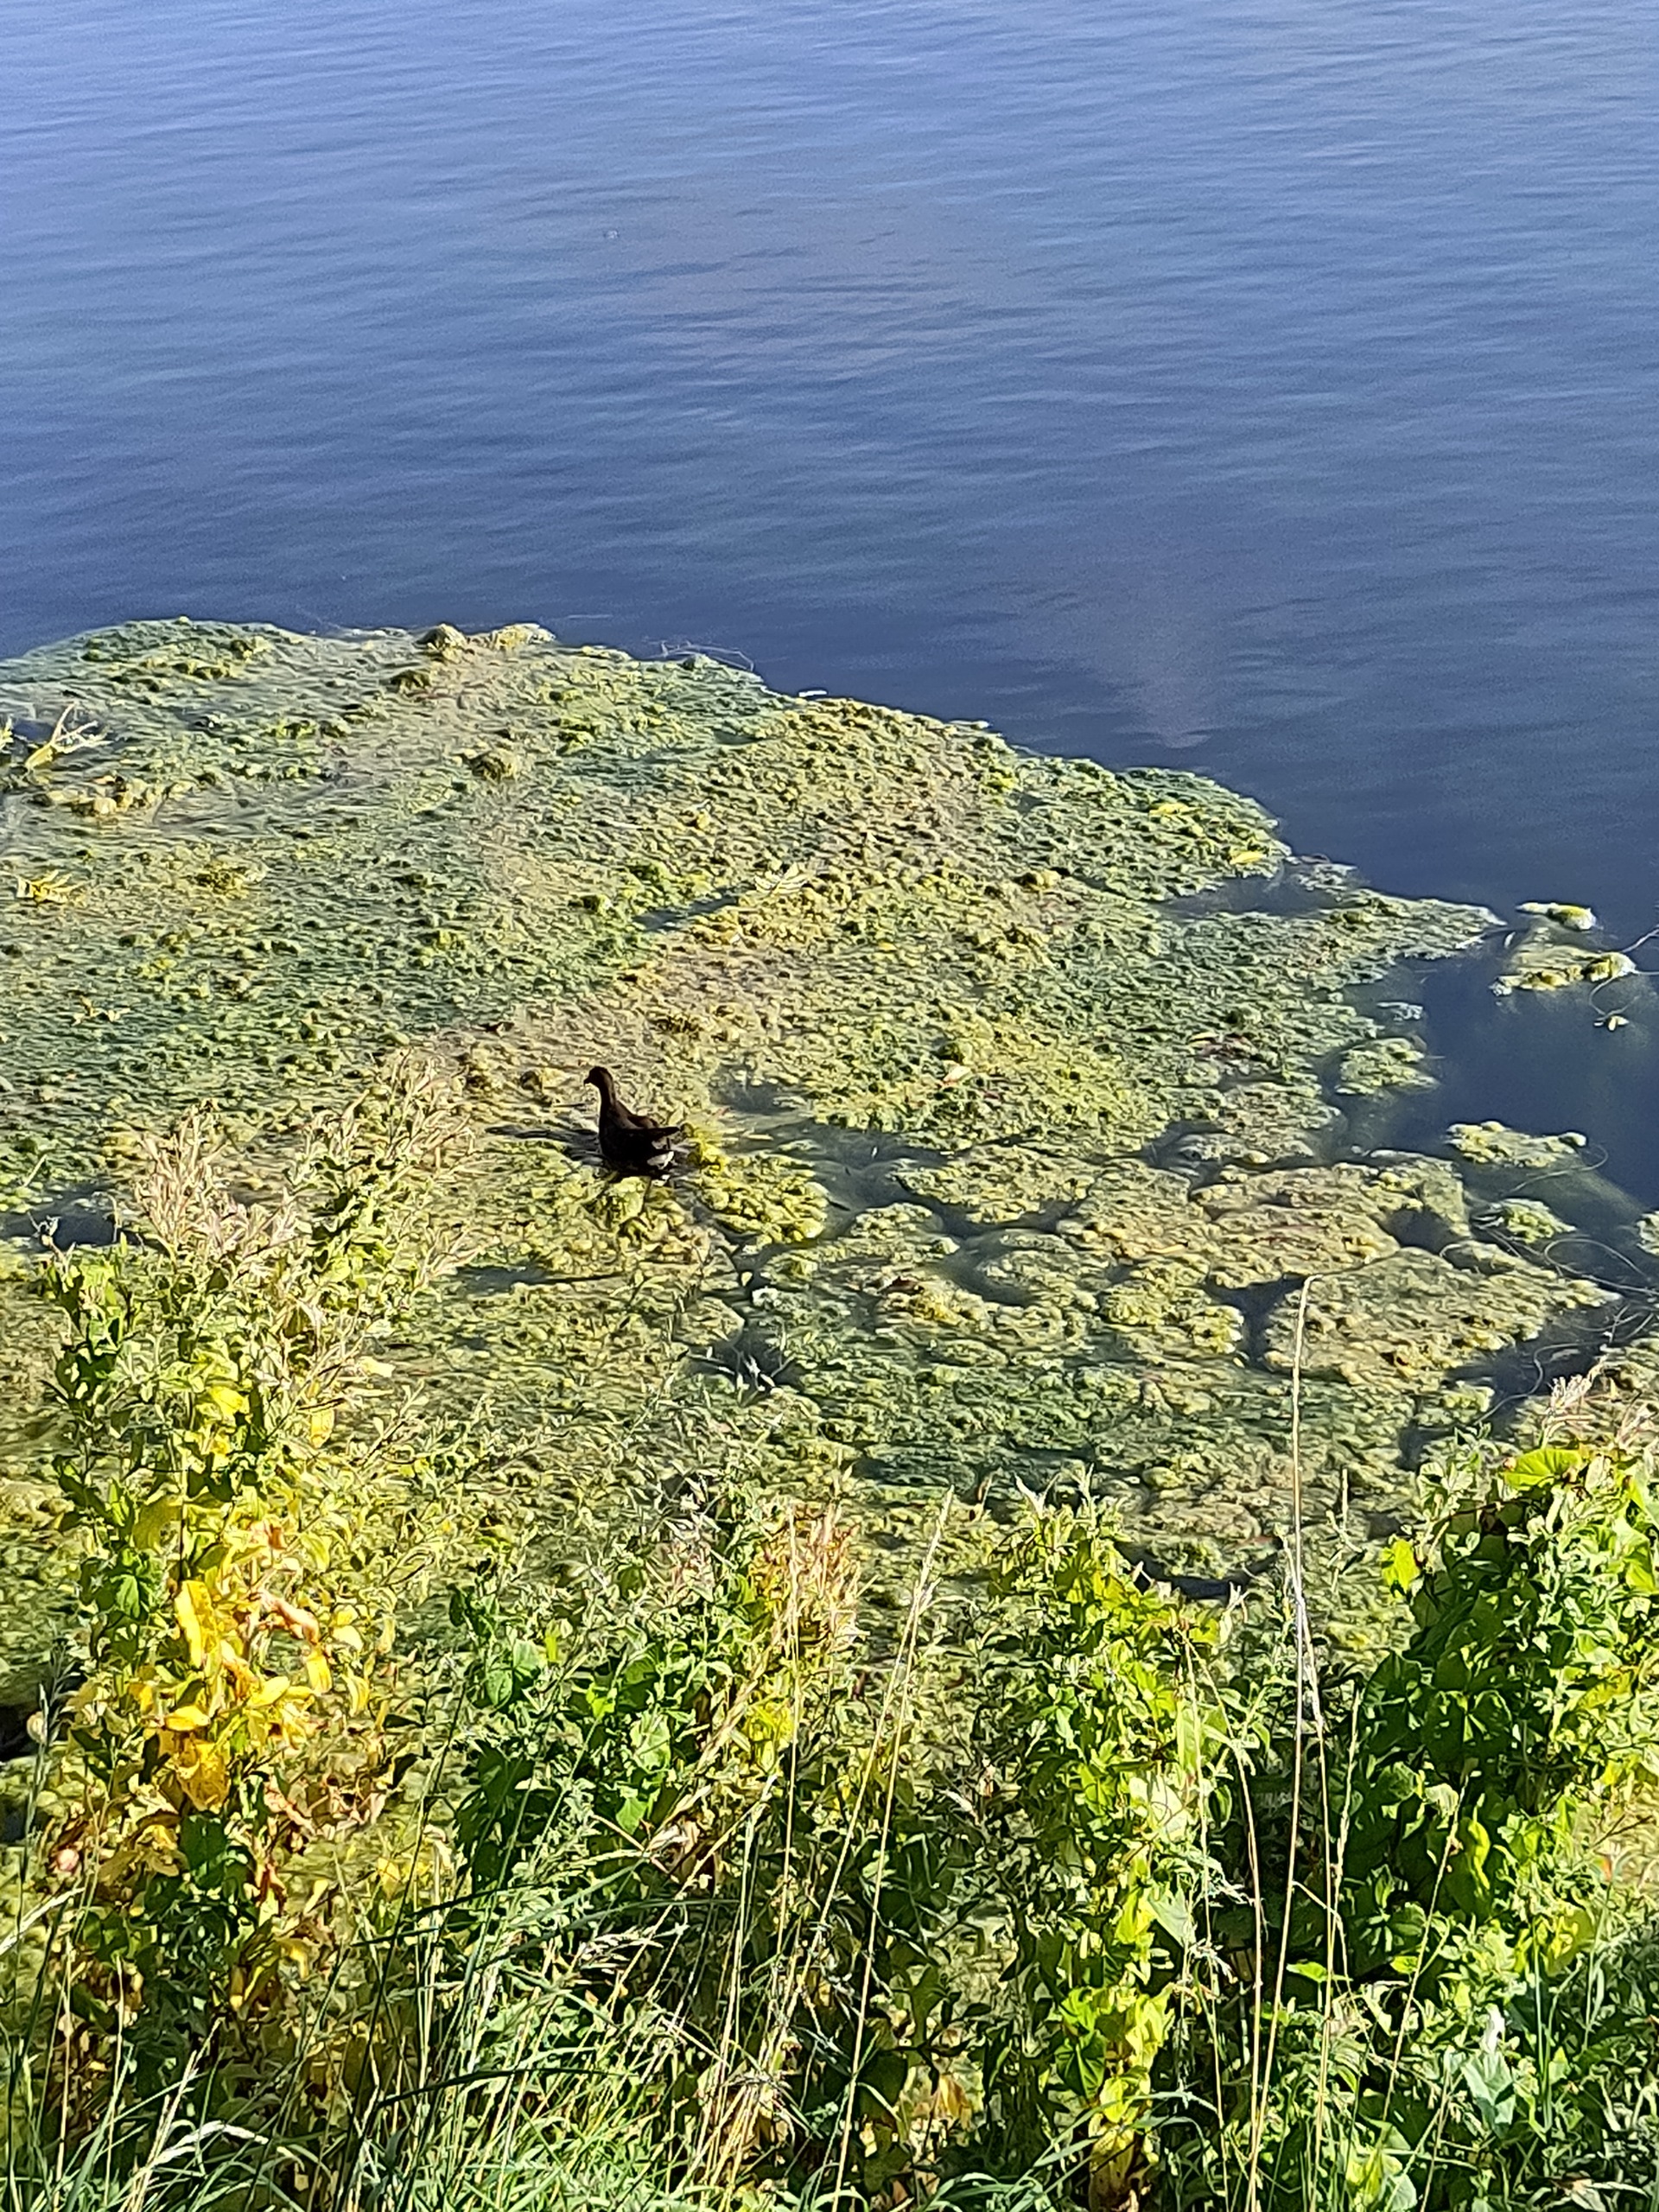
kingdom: Animalia
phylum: Chordata
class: Aves
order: Gruiformes
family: Rallidae
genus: Gallinula
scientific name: Gallinula chloropus
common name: Grønbenet rørhøne
